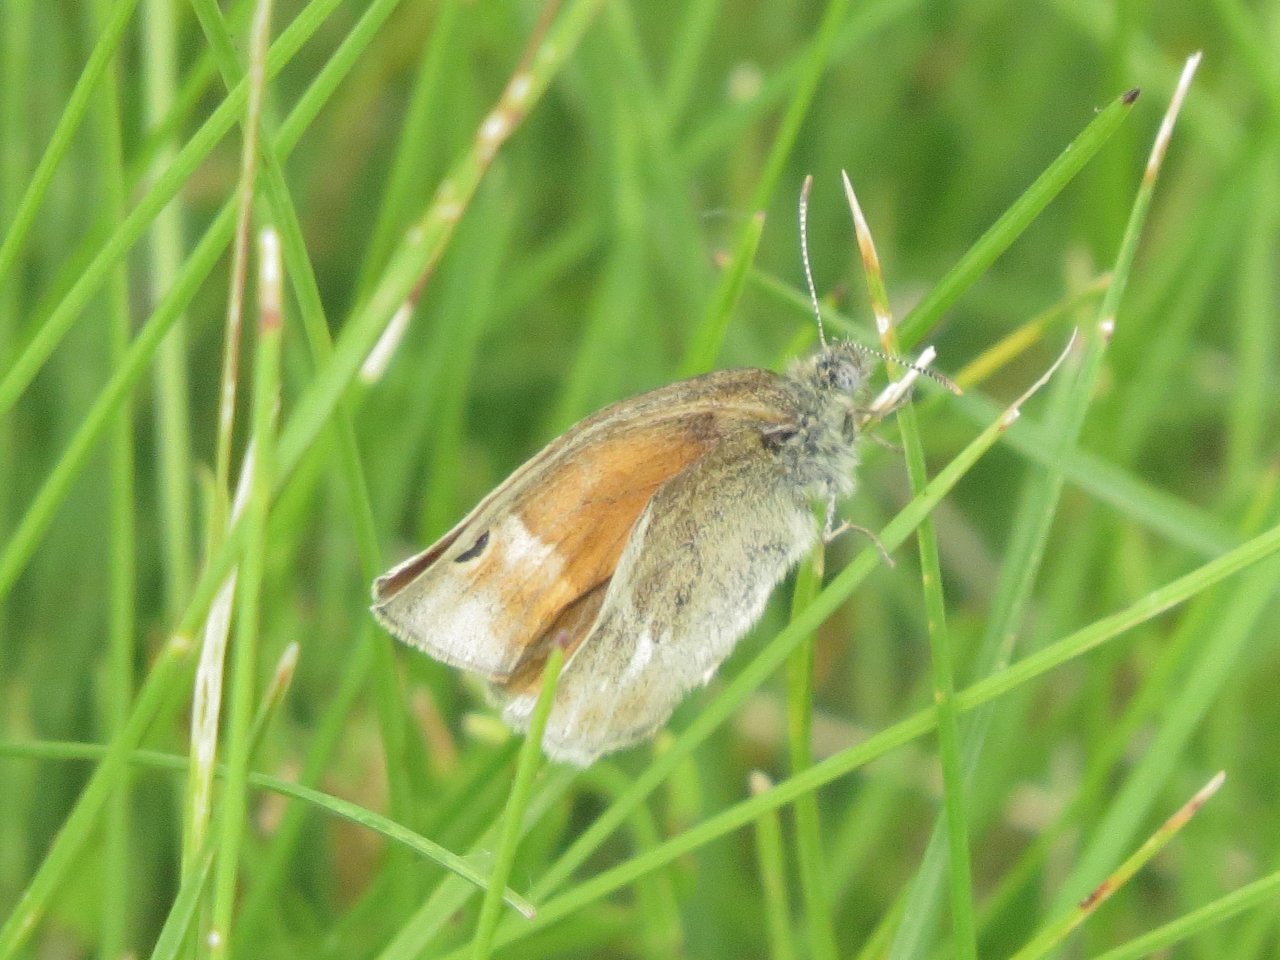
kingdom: Animalia
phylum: Arthropoda
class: Insecta
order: Lepidoptera
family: Nymphalidae
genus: Coenonympha
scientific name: Coenonympha tullia
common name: Large Heath
